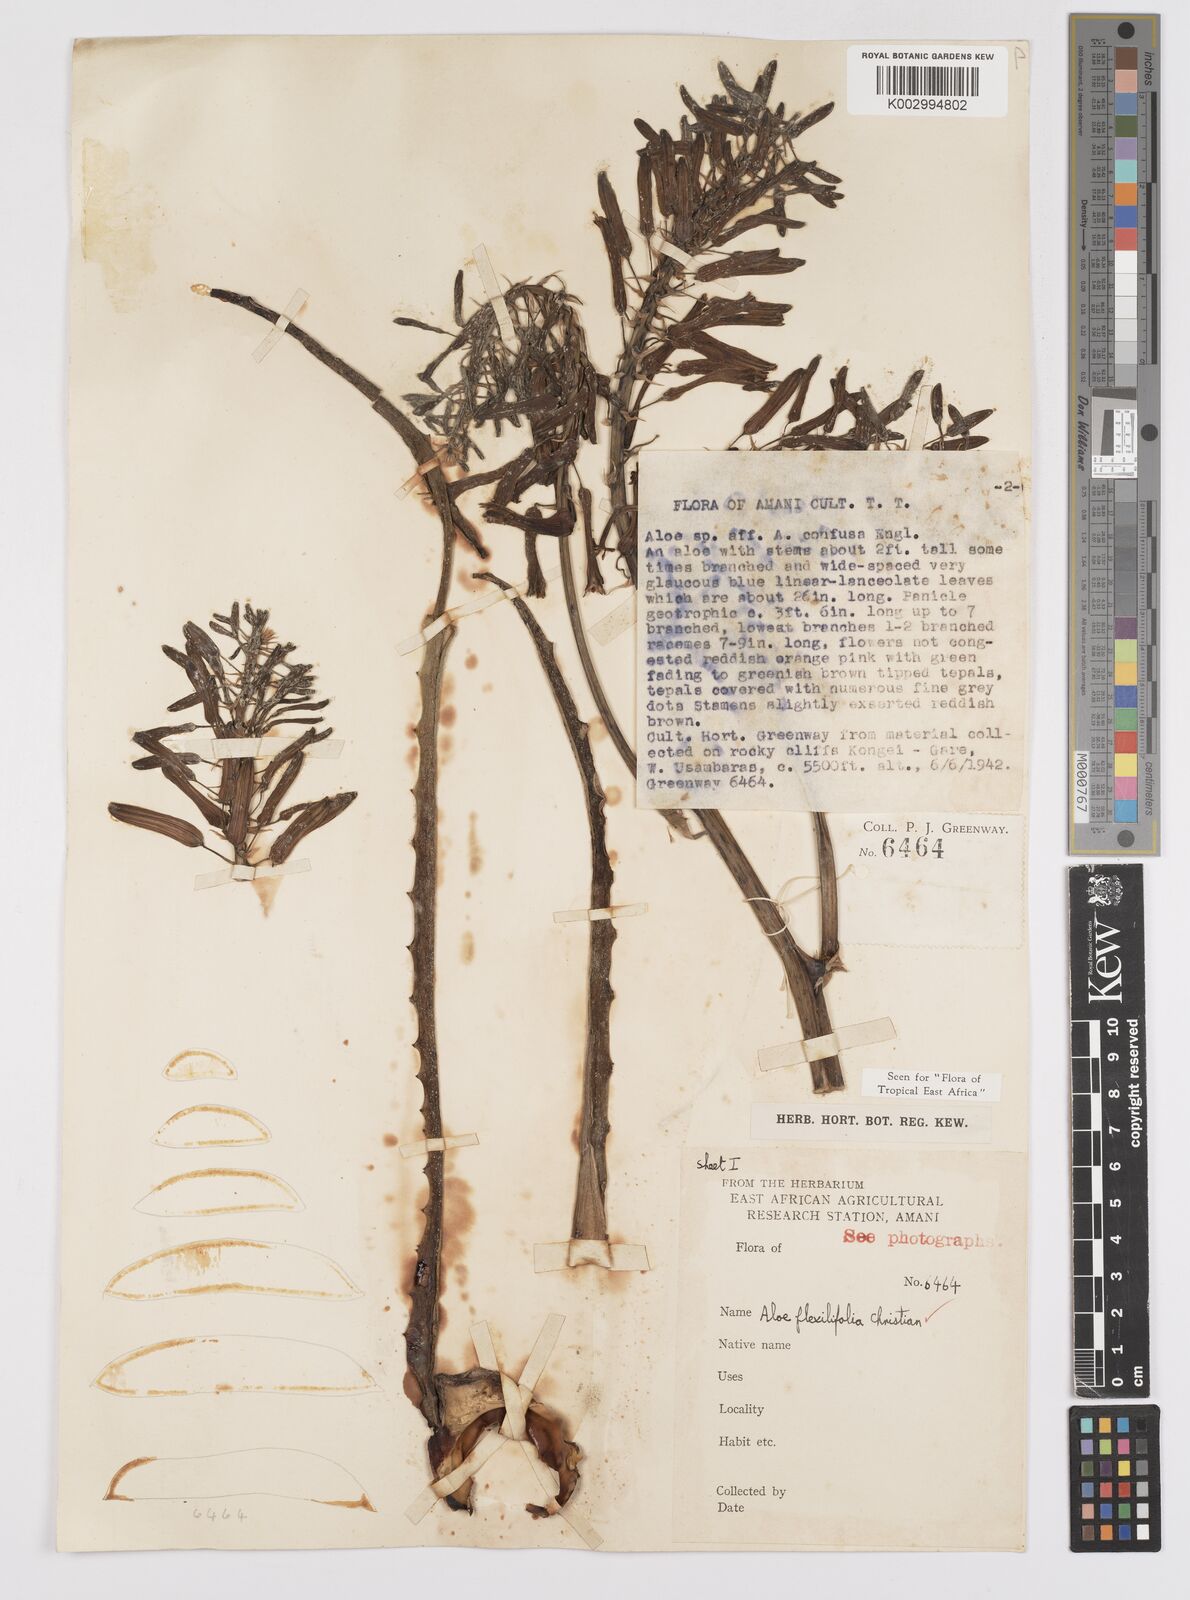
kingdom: Plantae
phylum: Tracheophyta
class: Liliopsida
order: Asparagales
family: Asphodelaceae
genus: Aloe
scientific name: Aloe flexilifolia
